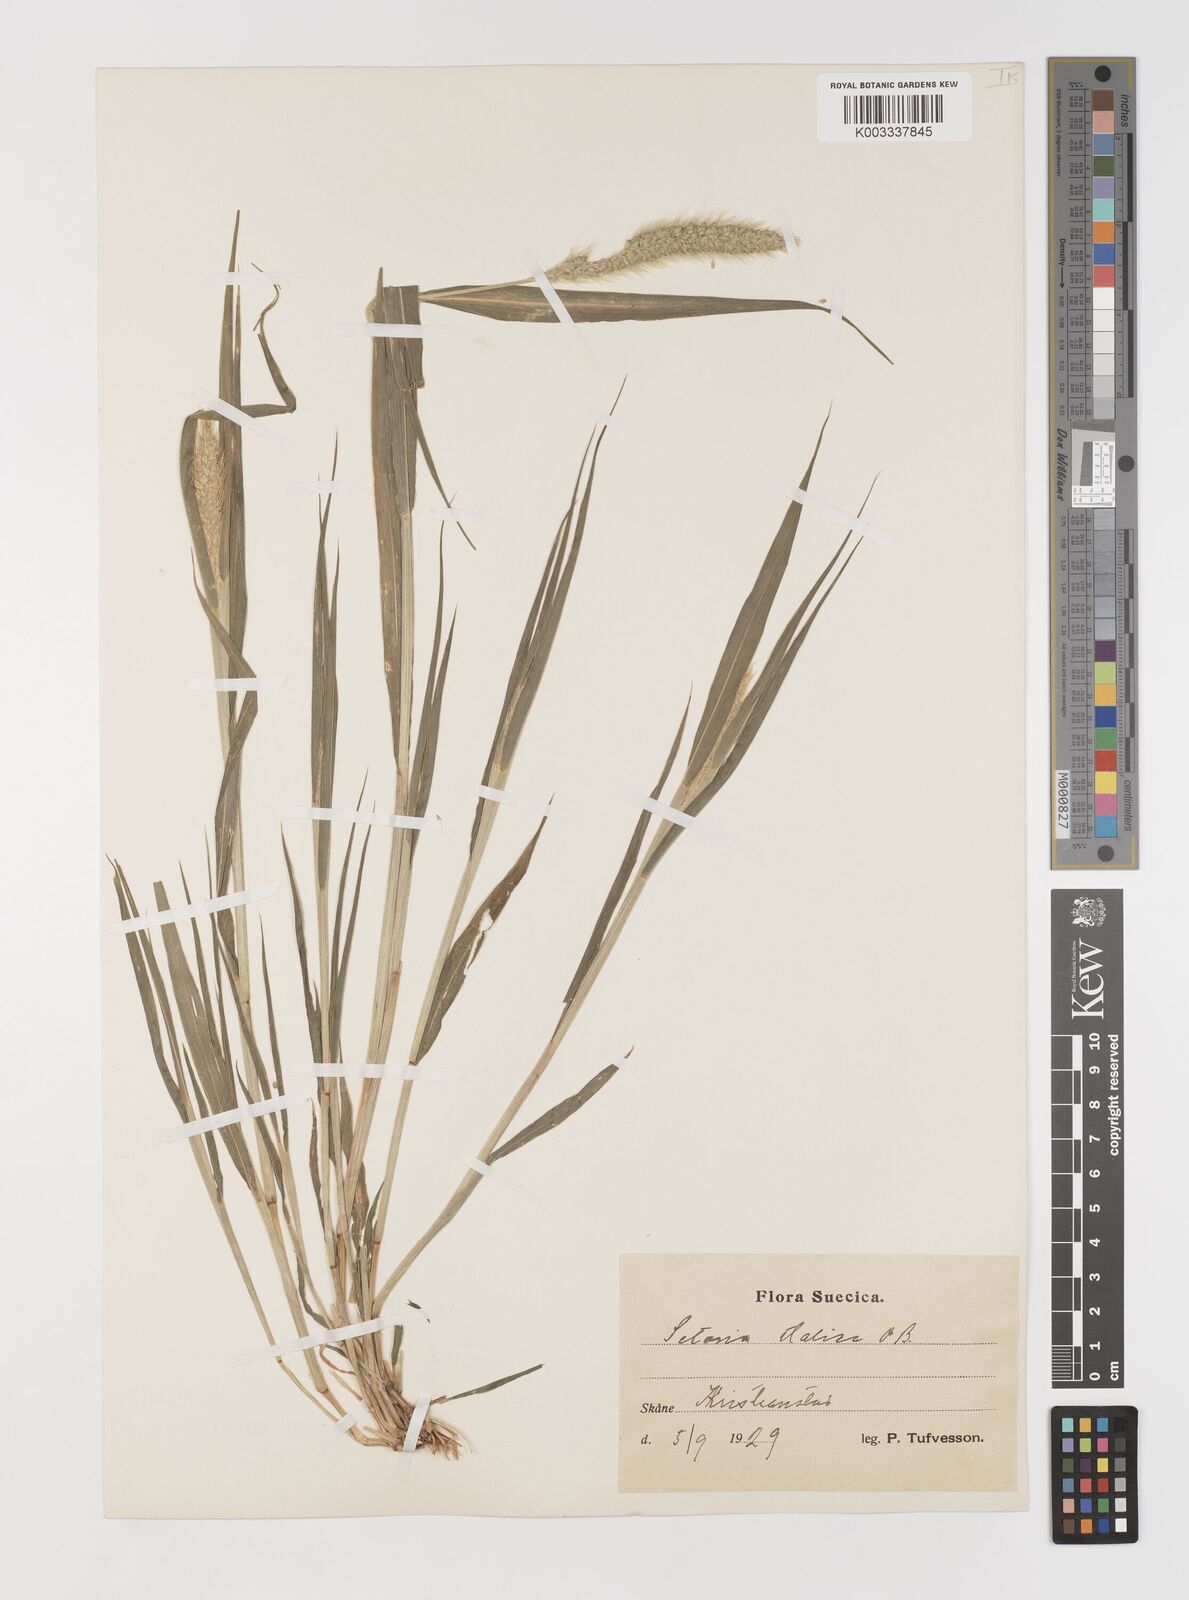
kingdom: Plantae
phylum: Tracheophyta
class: Liliopsida
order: Poales
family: Poaceae
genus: Setaria
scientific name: Setaria viridis
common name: Green bristlegrass
